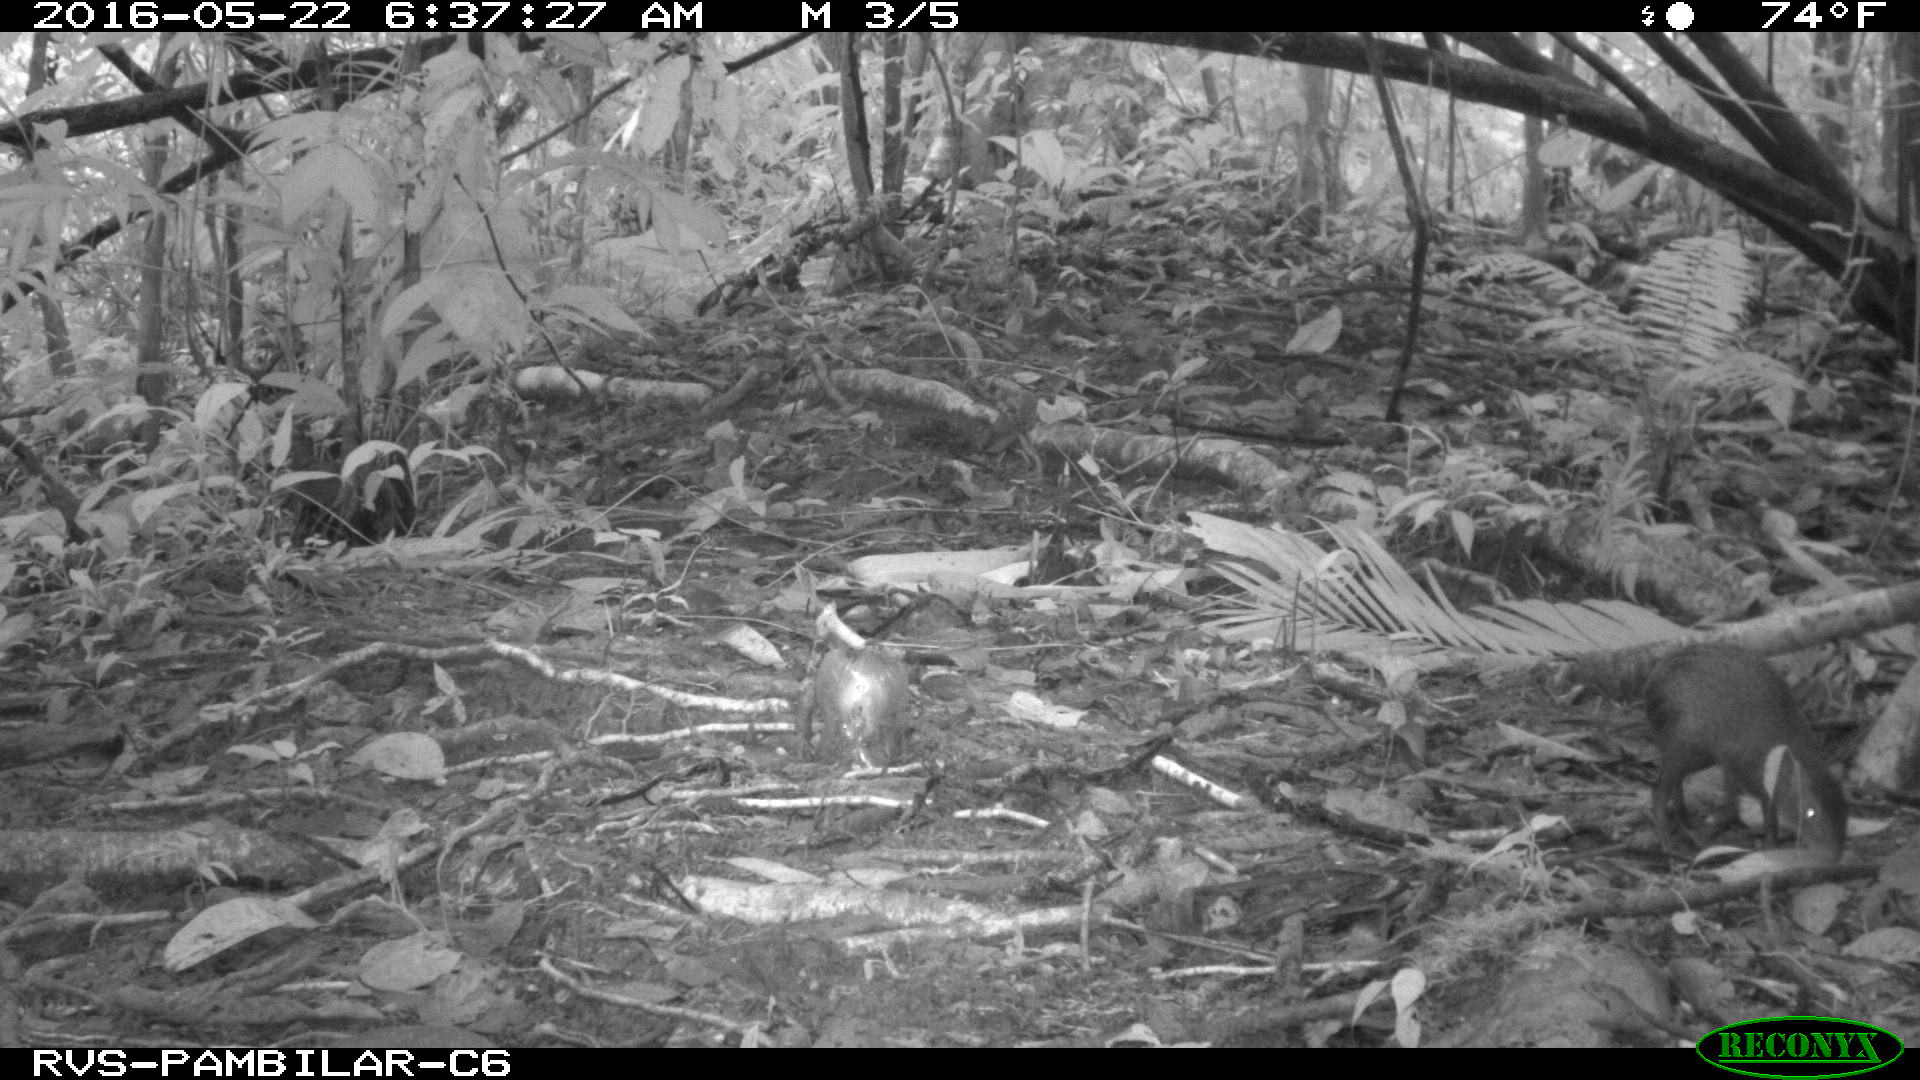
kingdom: Animalia
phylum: Chordata
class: Mammalia
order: Rodentia
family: Dasyproctidae
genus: Dasyprocta
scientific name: Dasyprocta punctata
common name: Central american agouti
